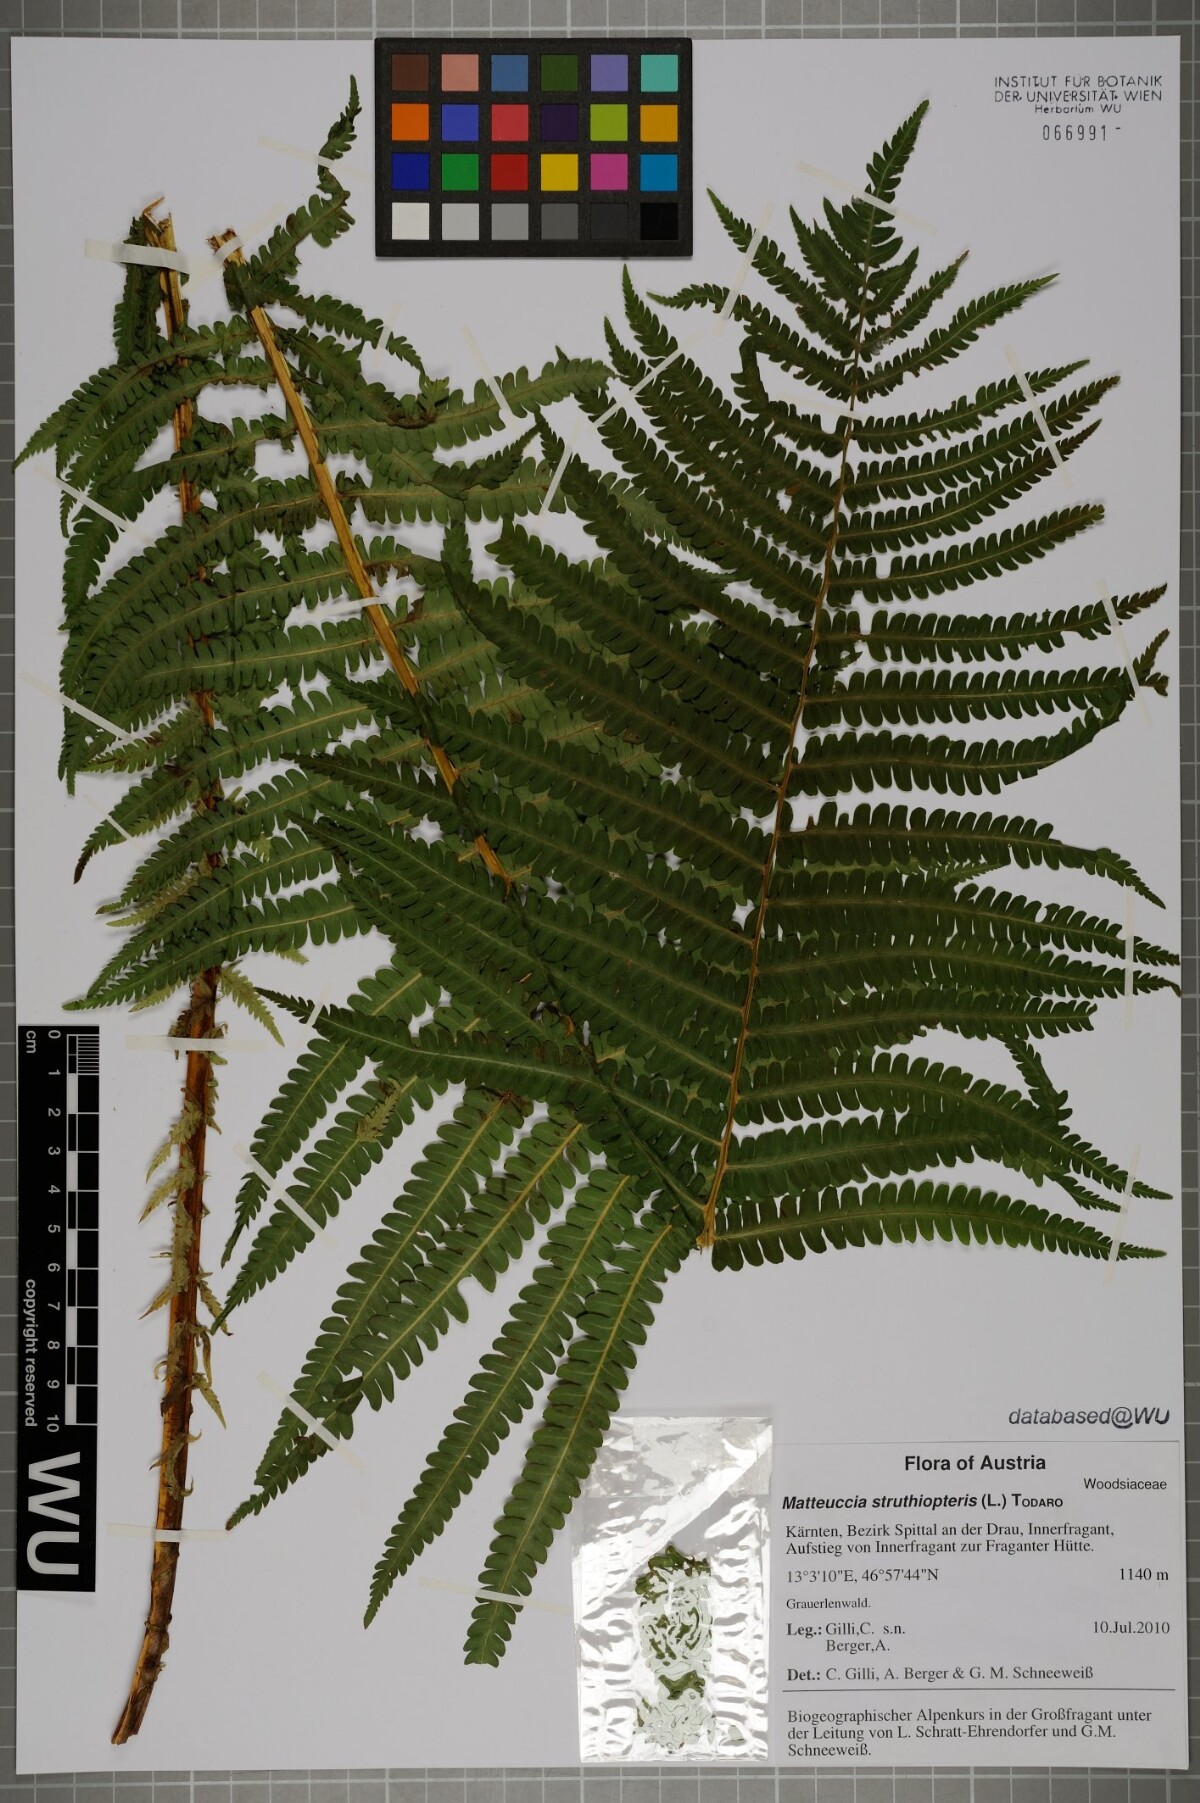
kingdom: Plantae
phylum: Tracheophyta
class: Polypodiopsida
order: Polypodiales
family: Onocleaceae
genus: Matteuccia
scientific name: Matteuccia struthiopteris
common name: Ostrich fern
